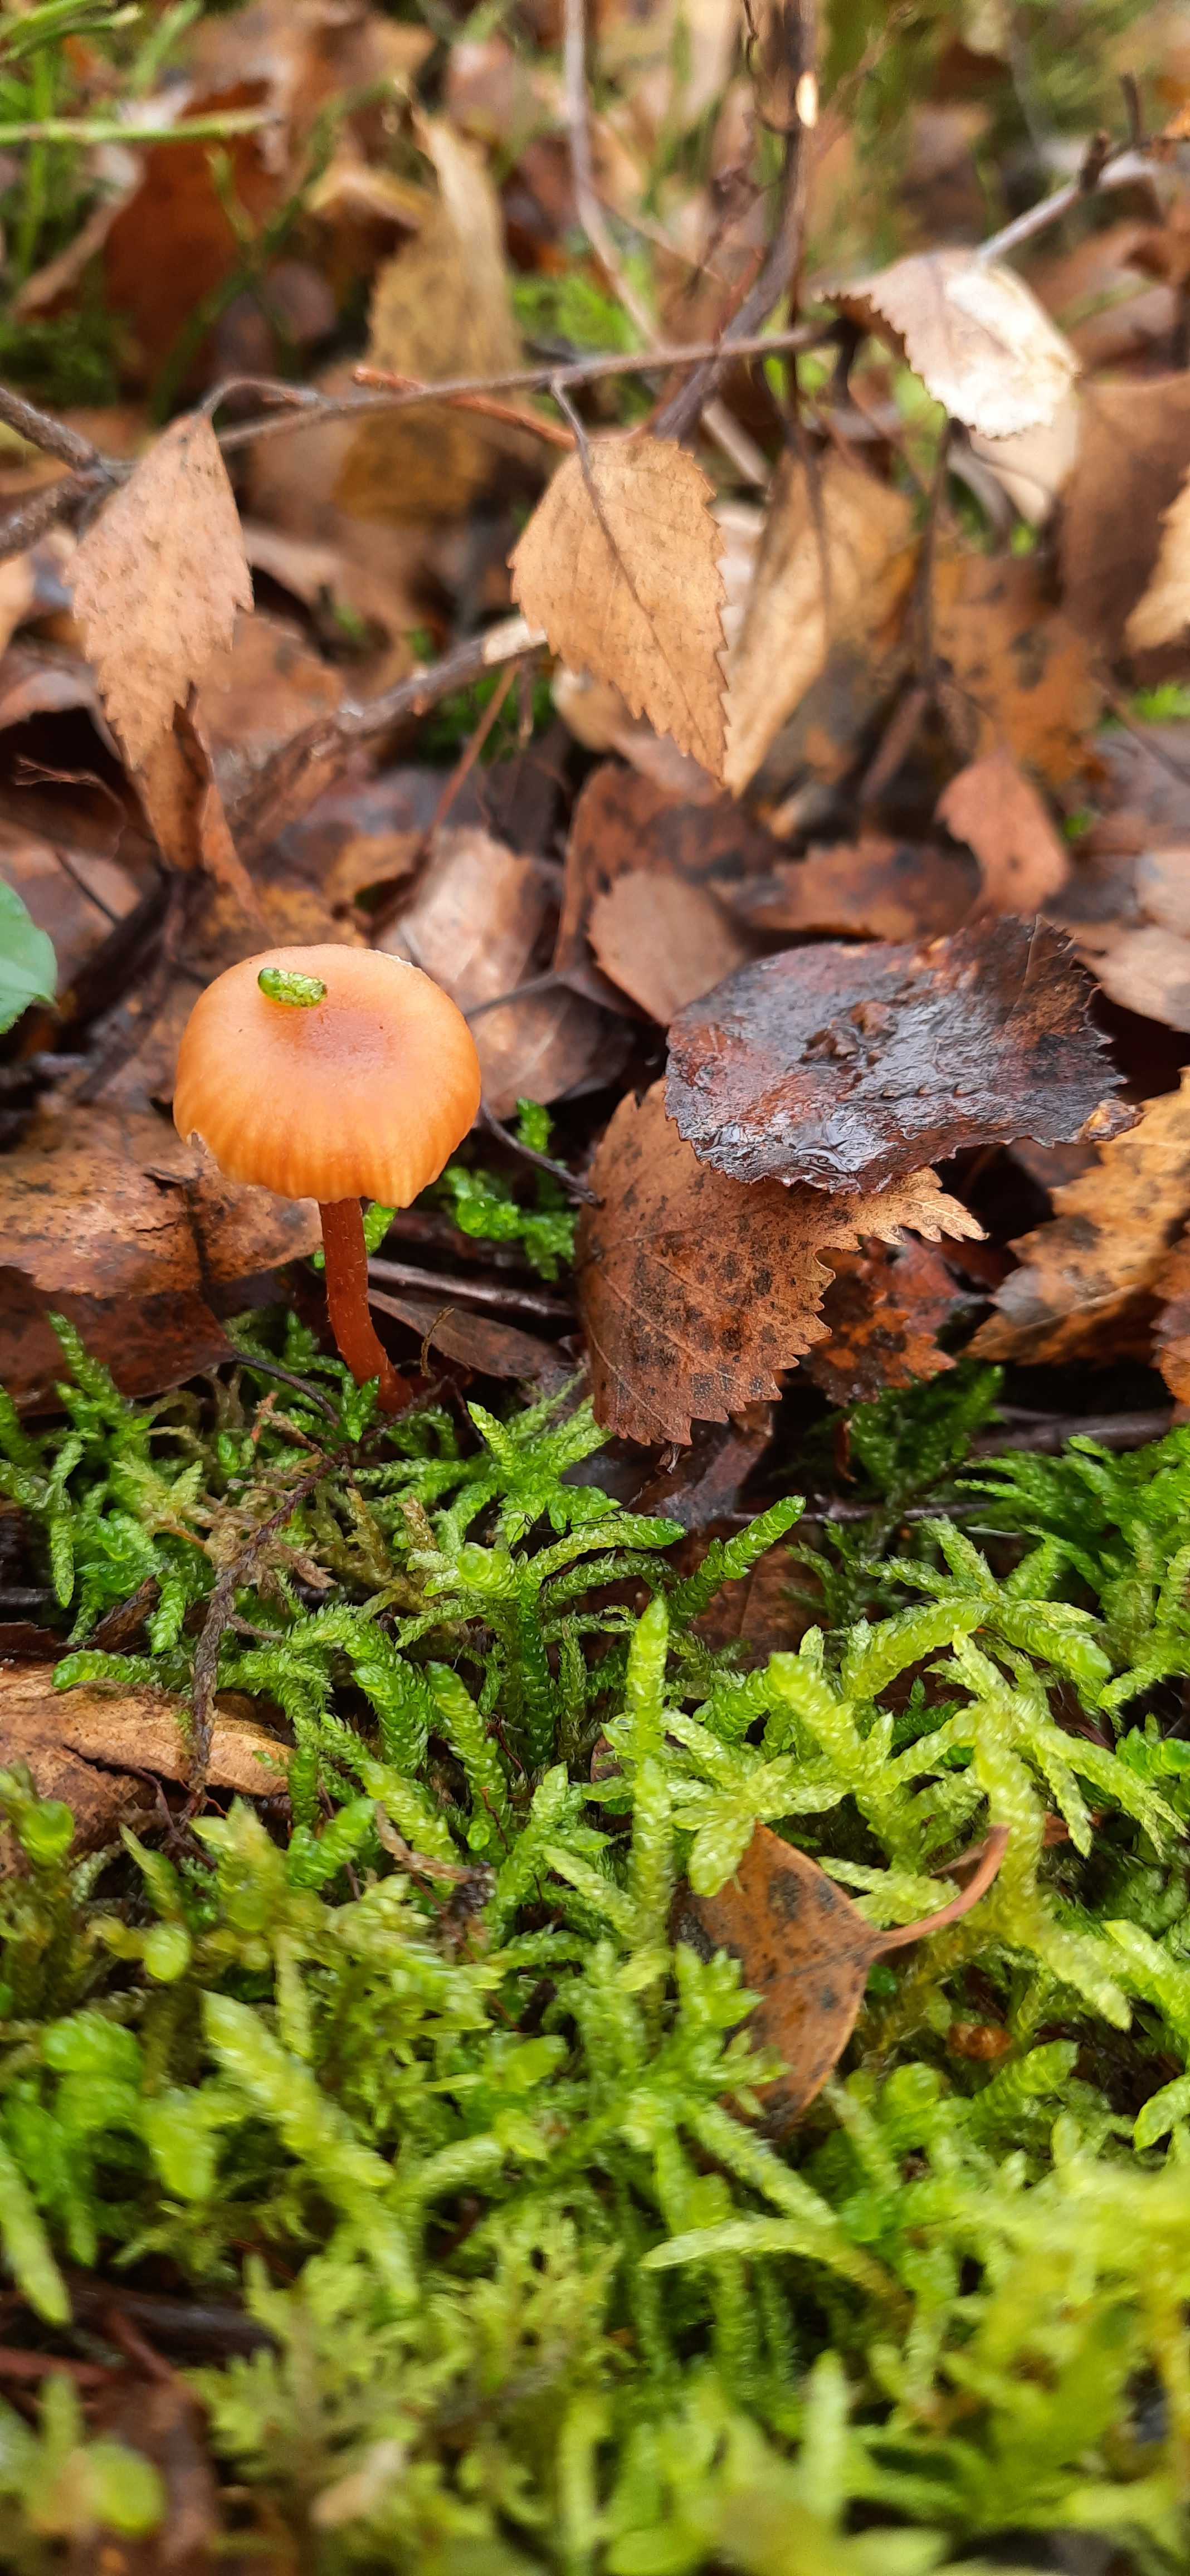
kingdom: Fungi
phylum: Basidiomycota
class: Agaricomycetes
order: Agaricales
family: Hydnangiaceae
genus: Laccaria
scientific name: Laccaria laccata
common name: rød ametysthat
